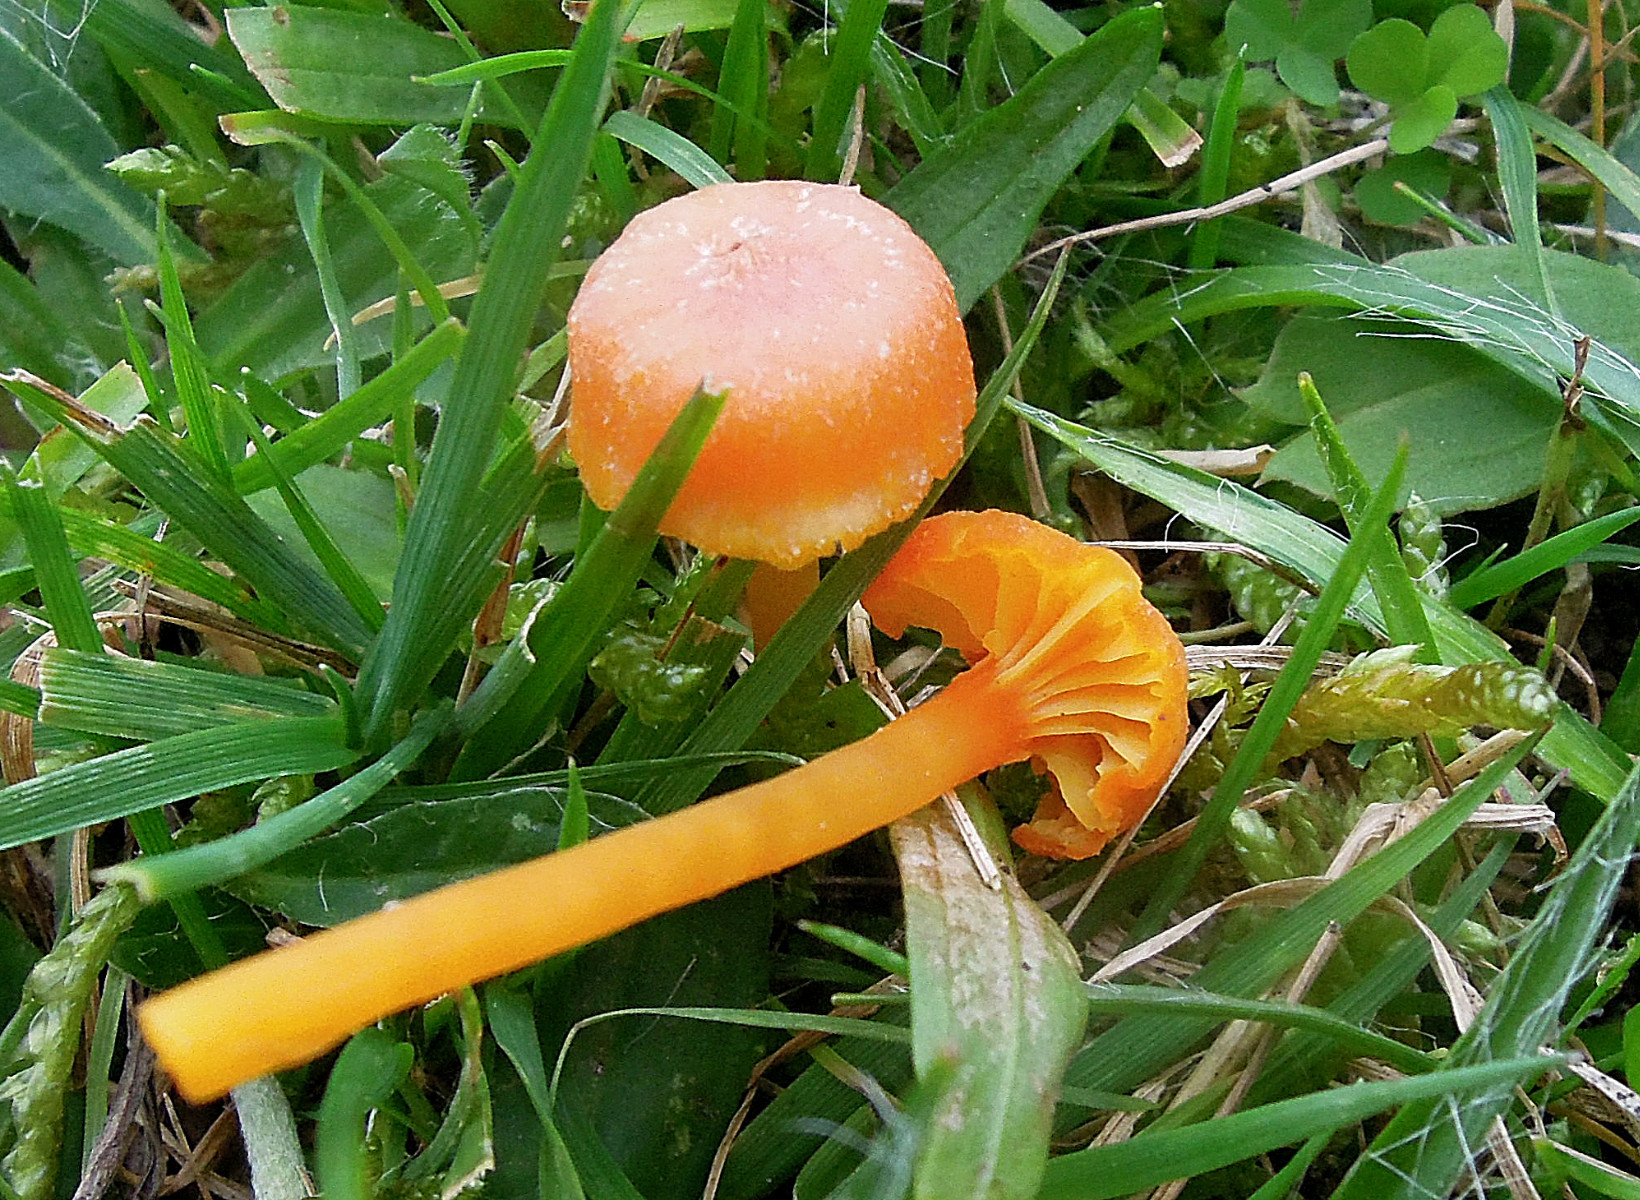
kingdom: Fungi
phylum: Basidiomycota
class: Agaricomycetes
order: Agaricales
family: Hygrophoraceae
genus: Hygrocybe
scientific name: Hygrocybe cantharellus
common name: kantarel-vokshat
